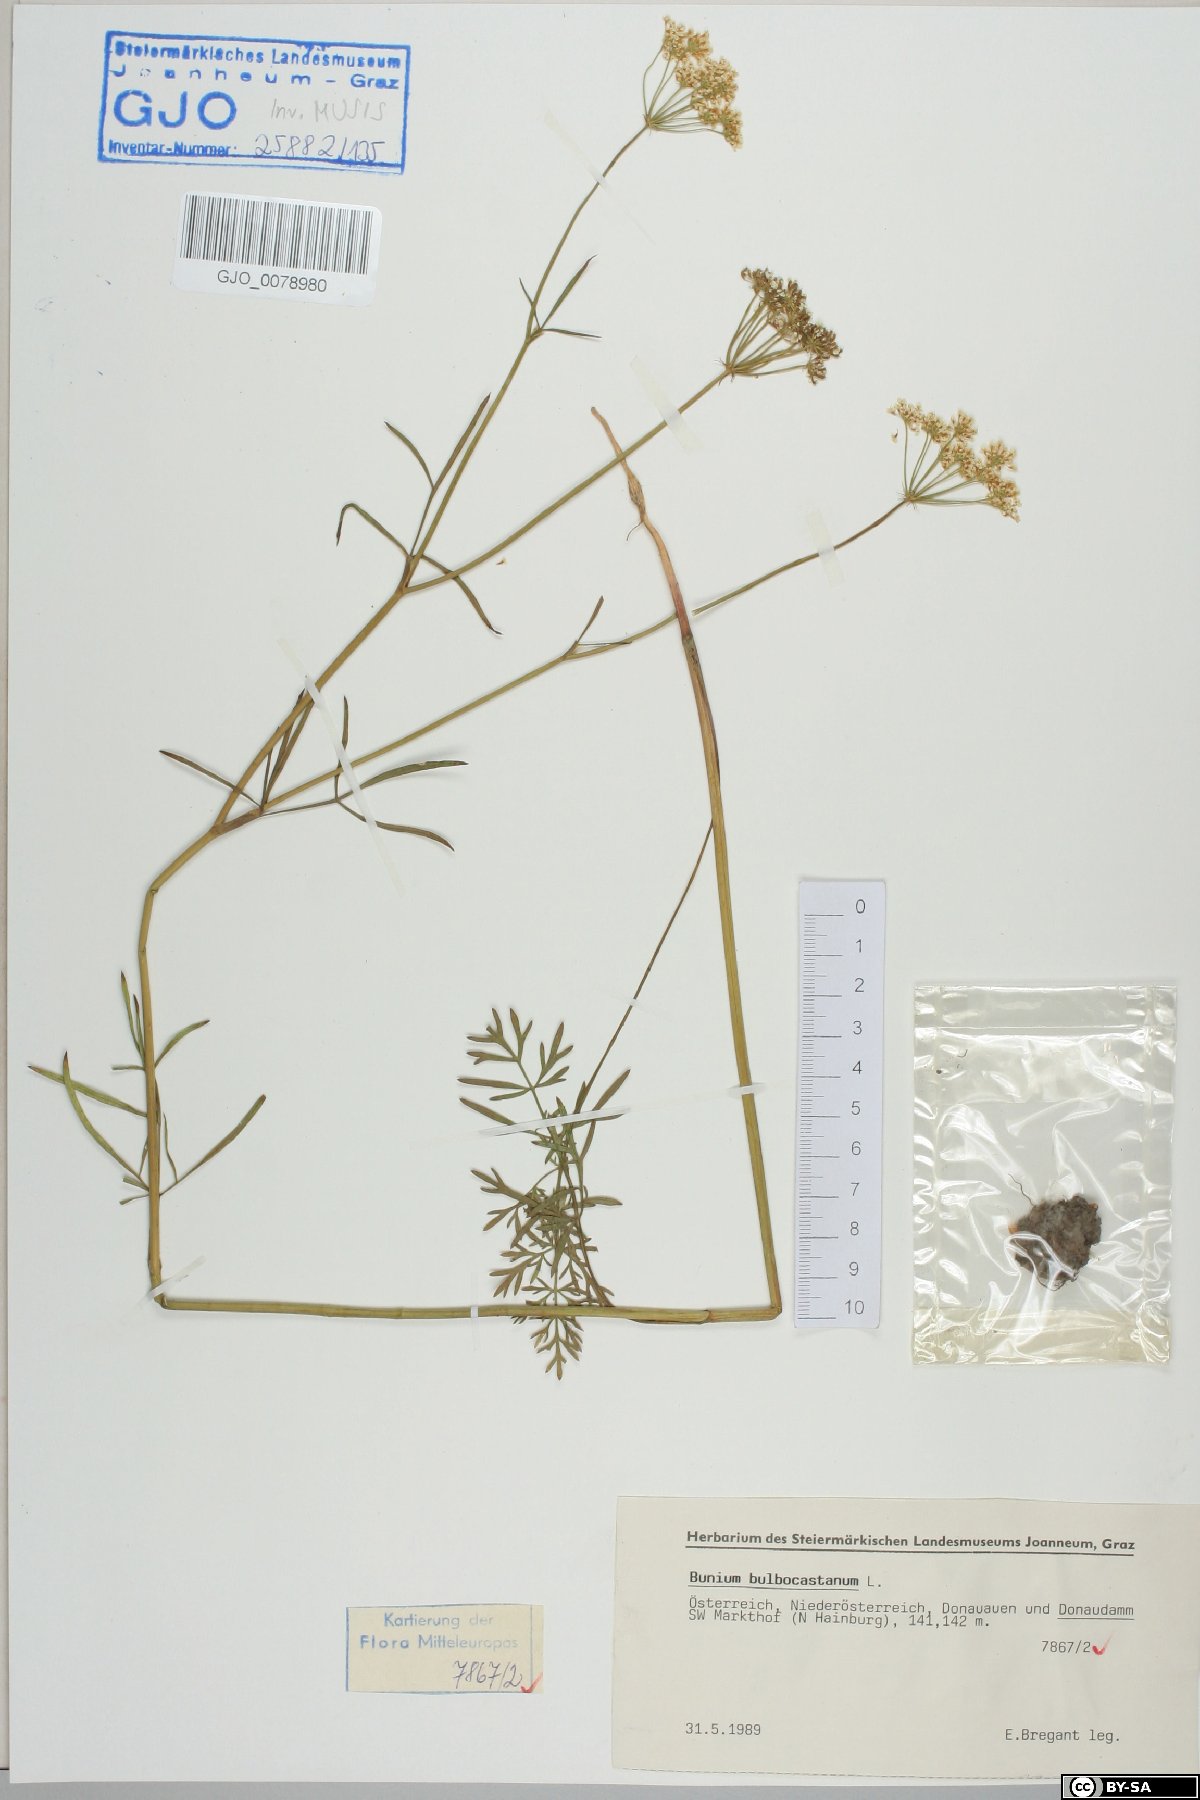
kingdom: Plantae
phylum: Tracheophyta
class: Magnoliopsida
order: Apiales
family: Apiaceae
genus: Bunium
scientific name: Bunium bulbocastanum
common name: Great pignut
